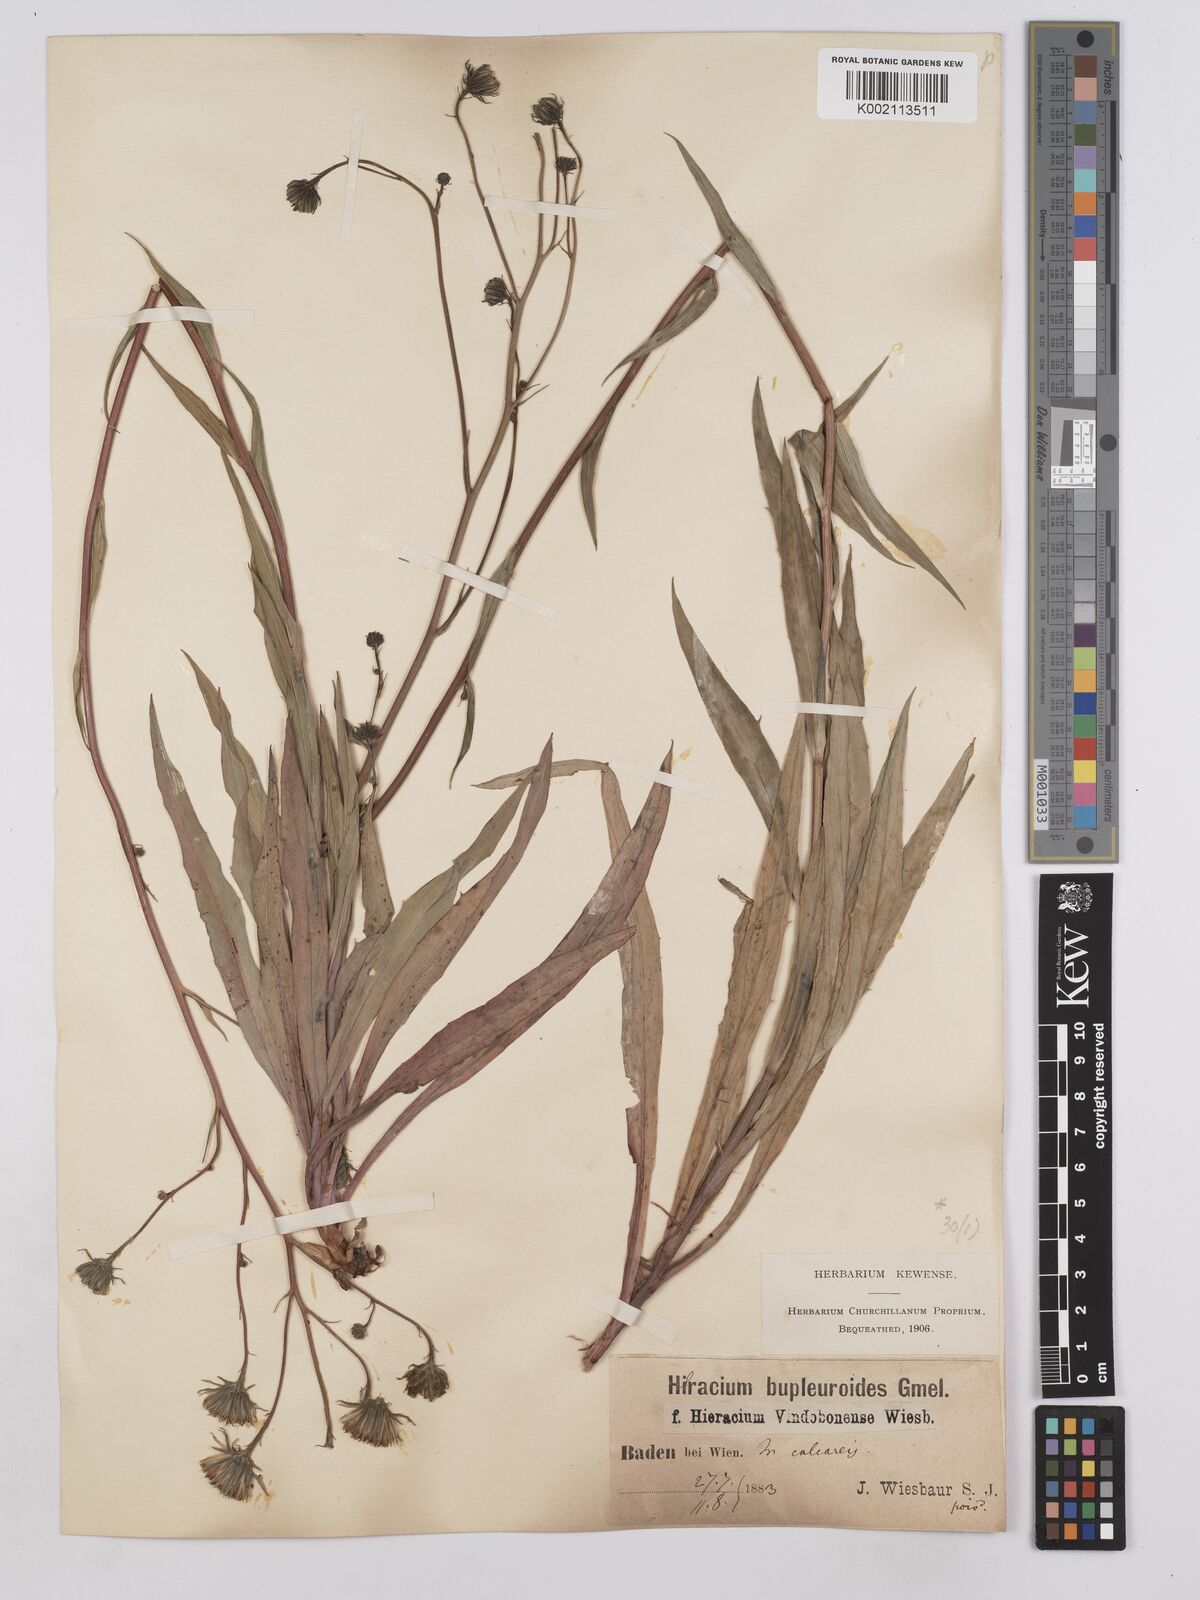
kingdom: Plantae
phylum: Tracheophyta
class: Magnoliopsida
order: Asterales
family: Asteraceae
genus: Hieracium
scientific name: Hieracium vindobonense
